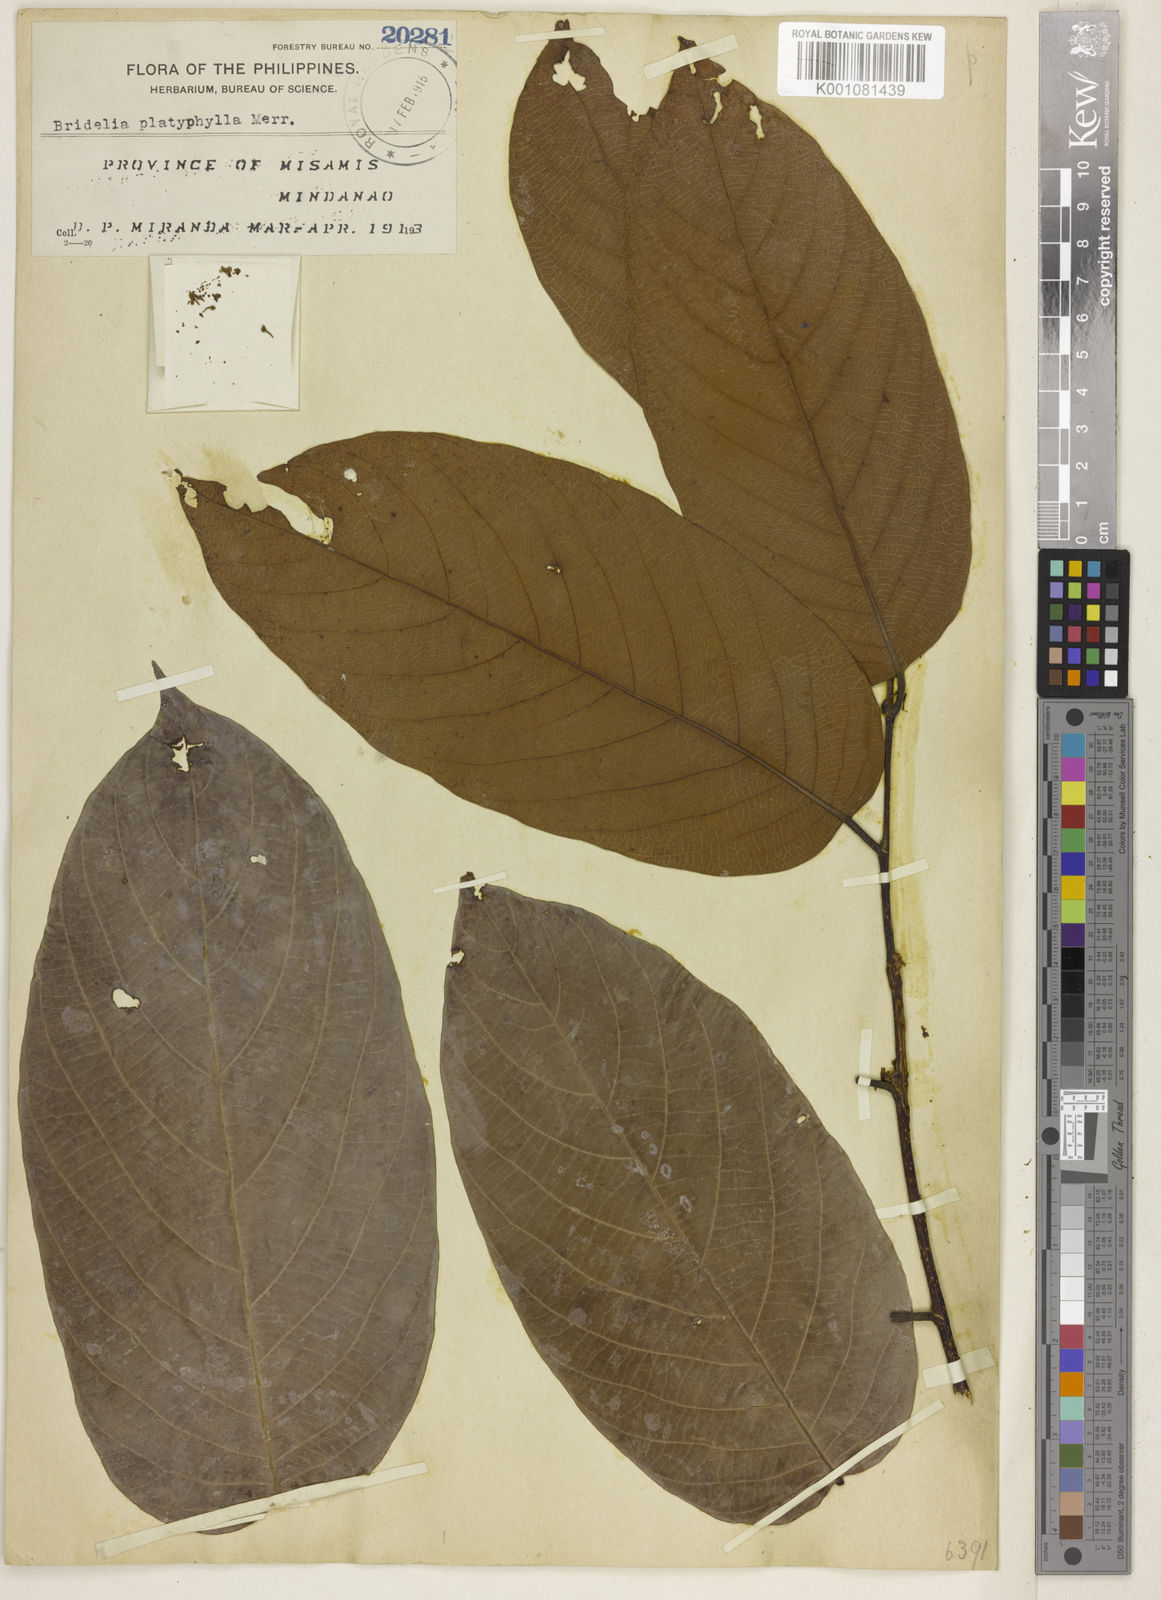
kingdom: Plantae
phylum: Tracheophyta
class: Magnoliopsida
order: Malpighiales
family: Phyllanthaceae
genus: Bridelia
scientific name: Bridelia insulana
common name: Grey-birch
